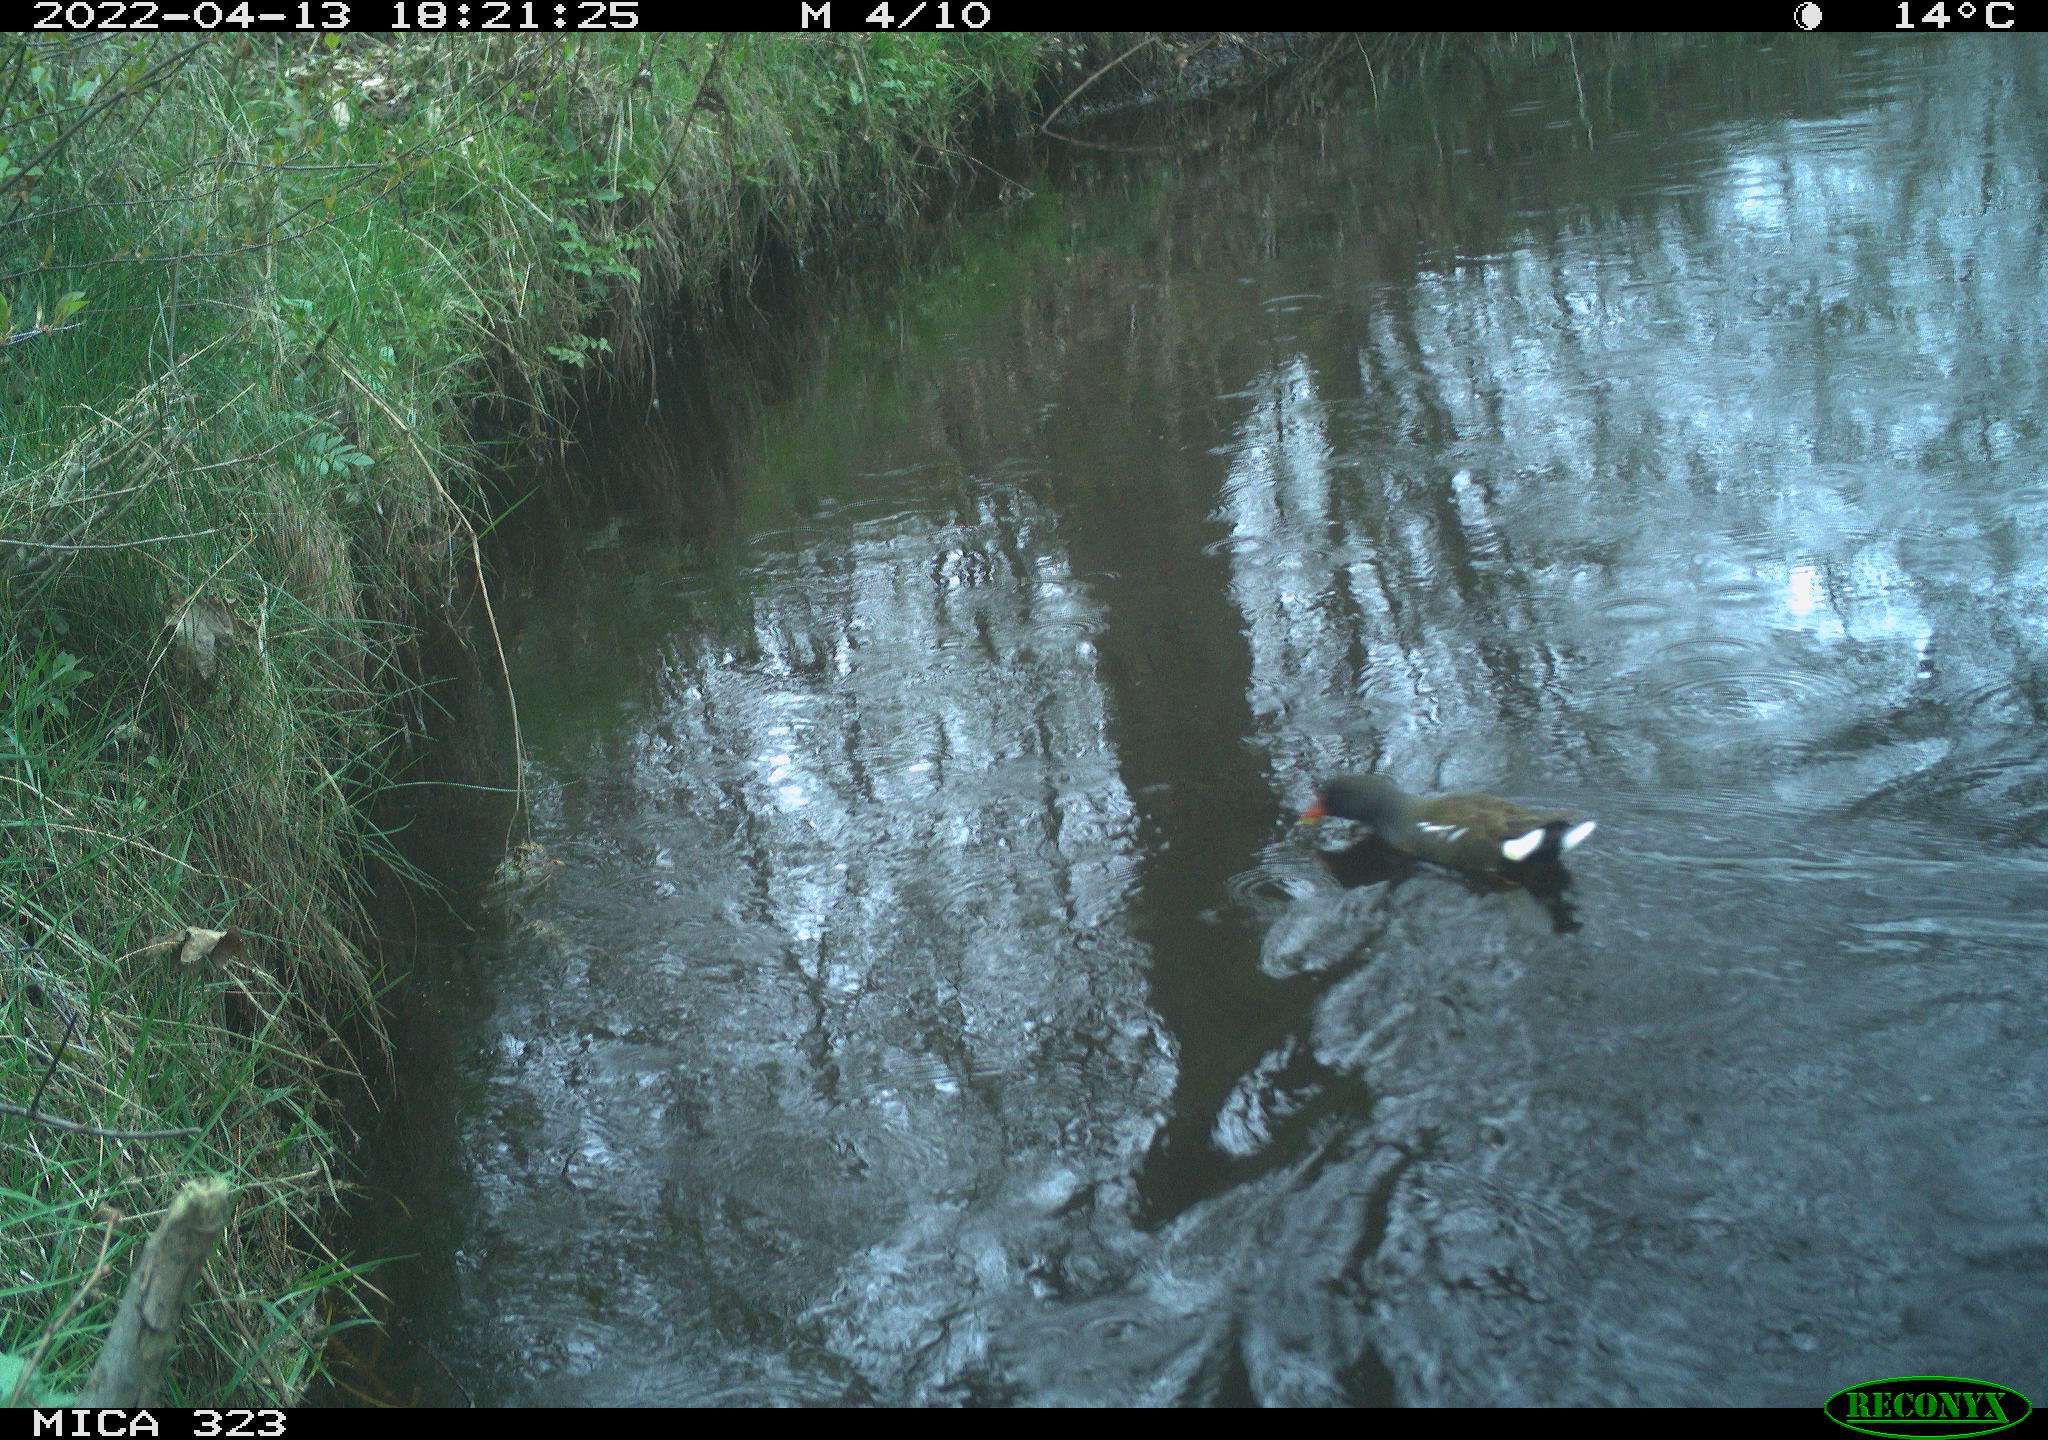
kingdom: Animalia
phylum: Chordata
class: Aves
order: Gruiformes
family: Rallidae
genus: Gallinula
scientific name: Gallinula chloropus
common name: Common moorhen
